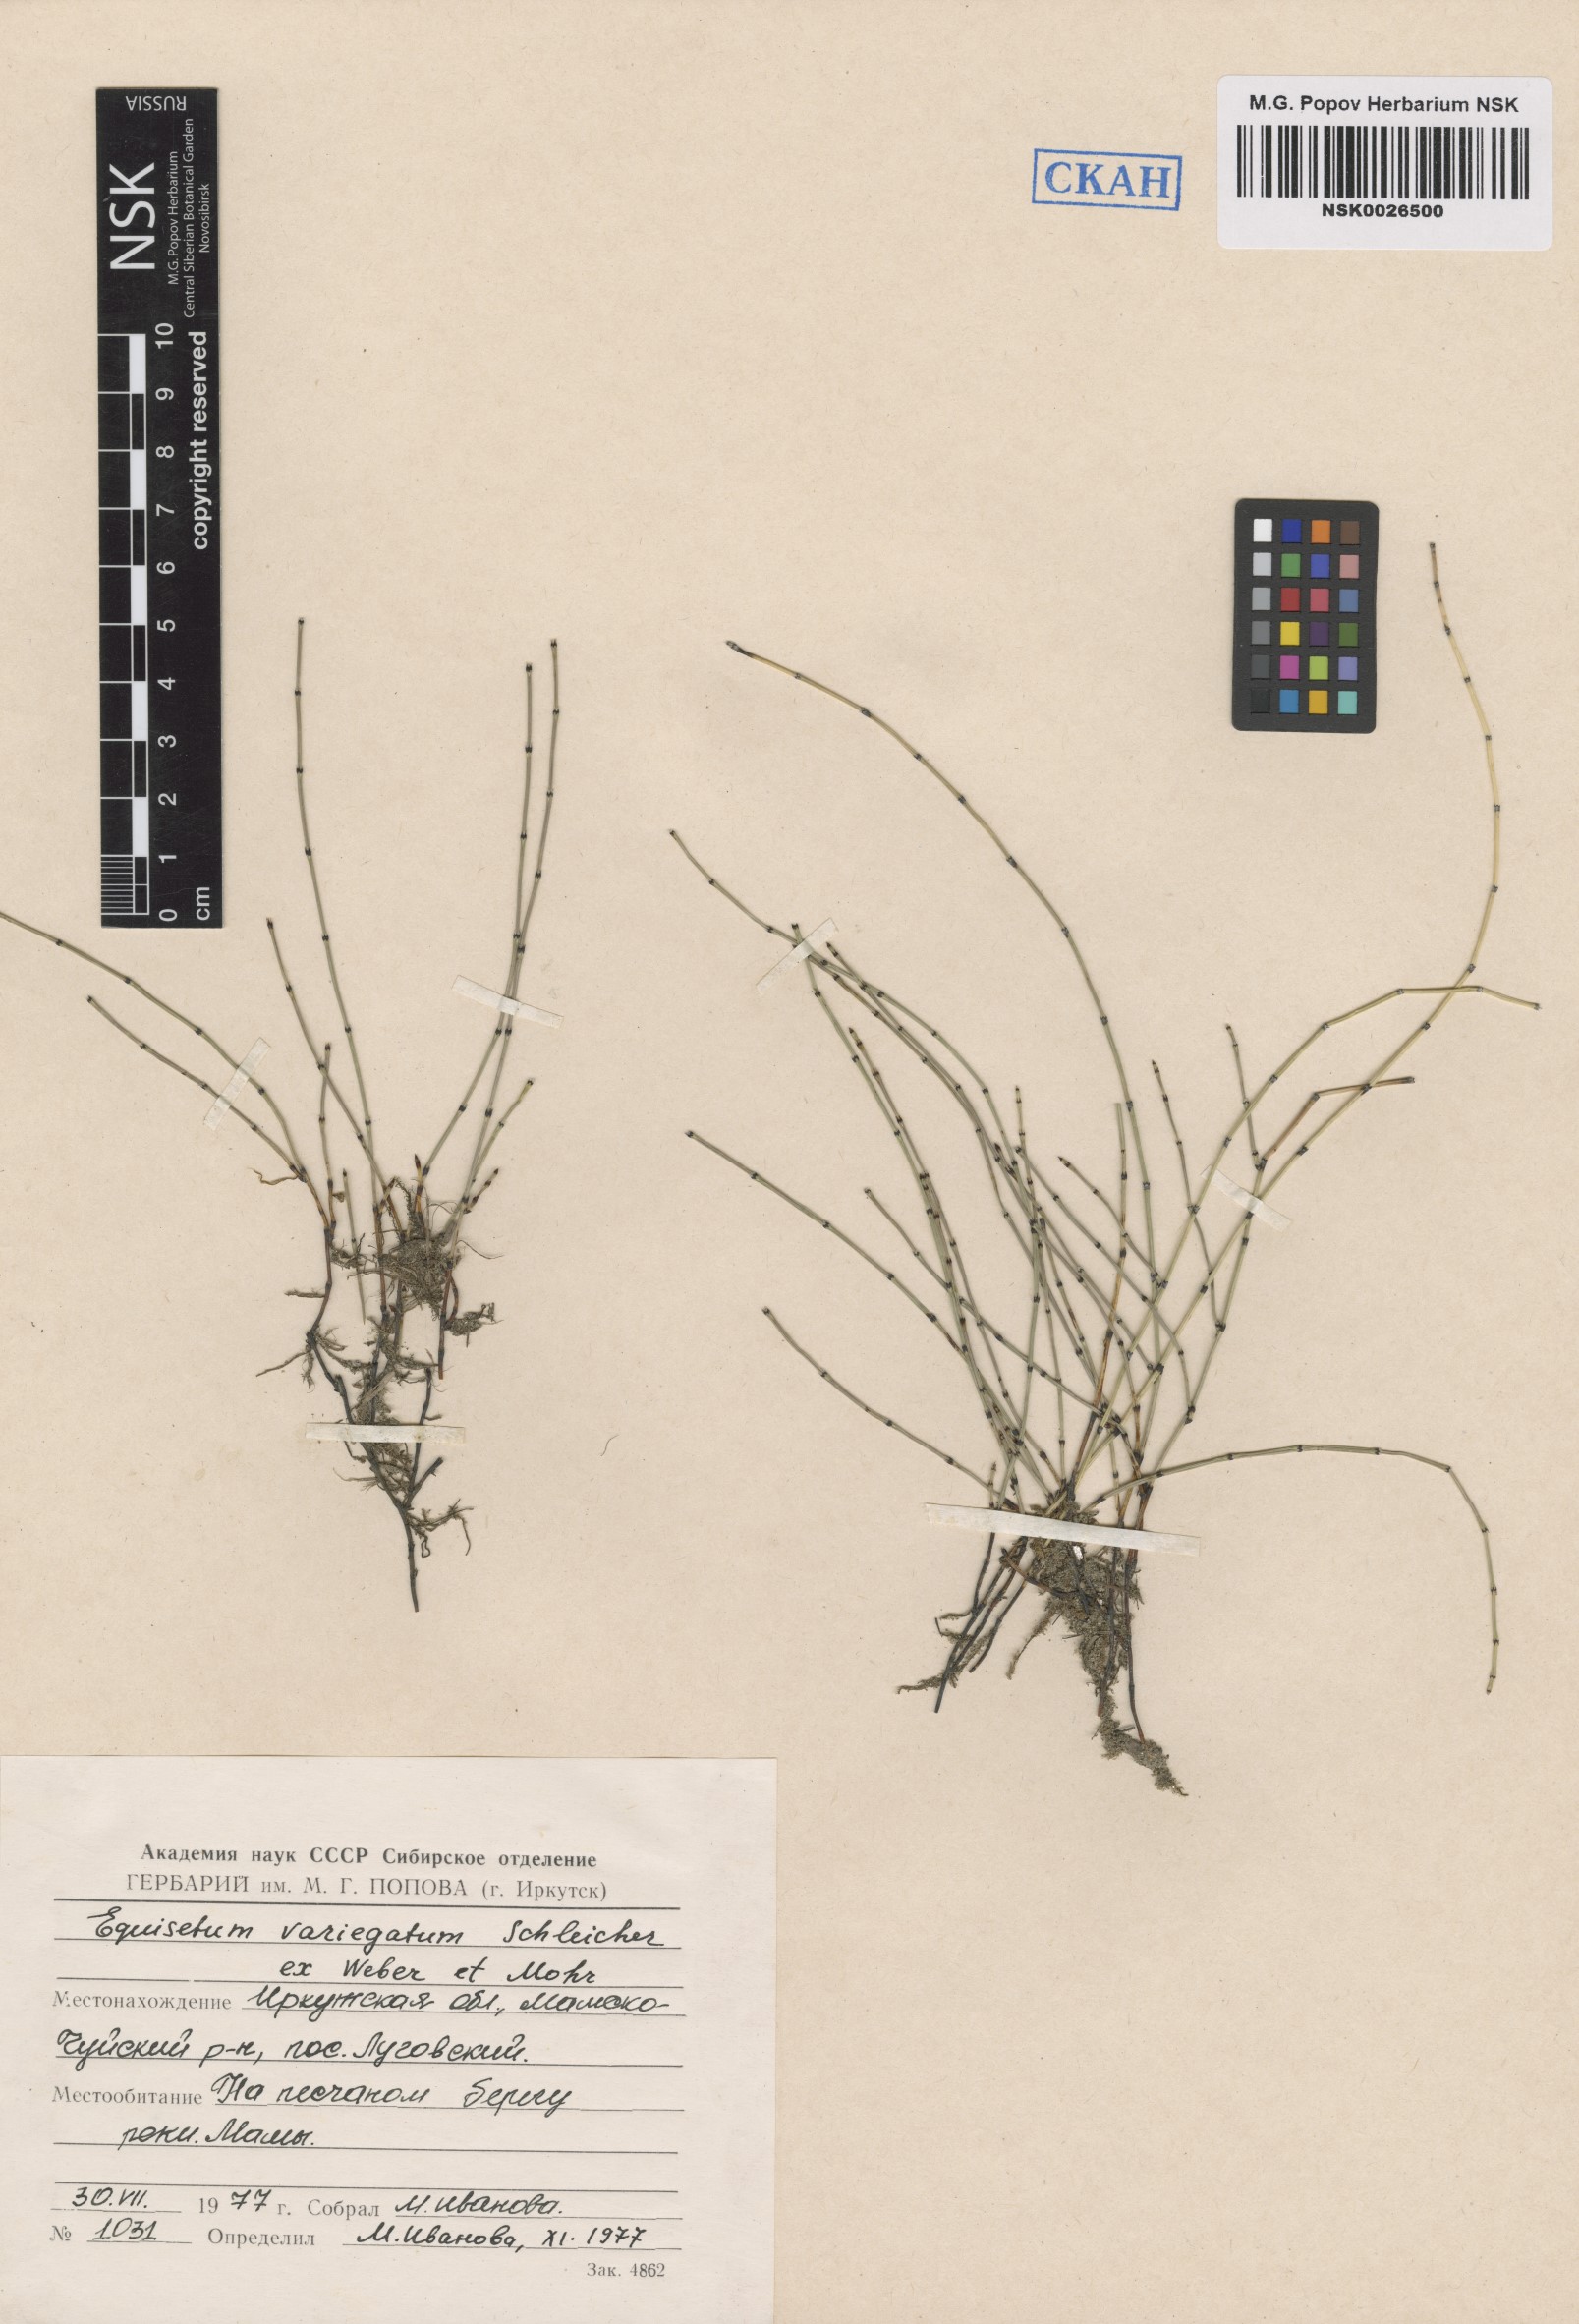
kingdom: Plantae
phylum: Tracheophyta
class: Polypodiopsida
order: Equisetales
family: Equisetaceae
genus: Equisetum
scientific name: Equisetum variegatum
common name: Variegated horsetail
